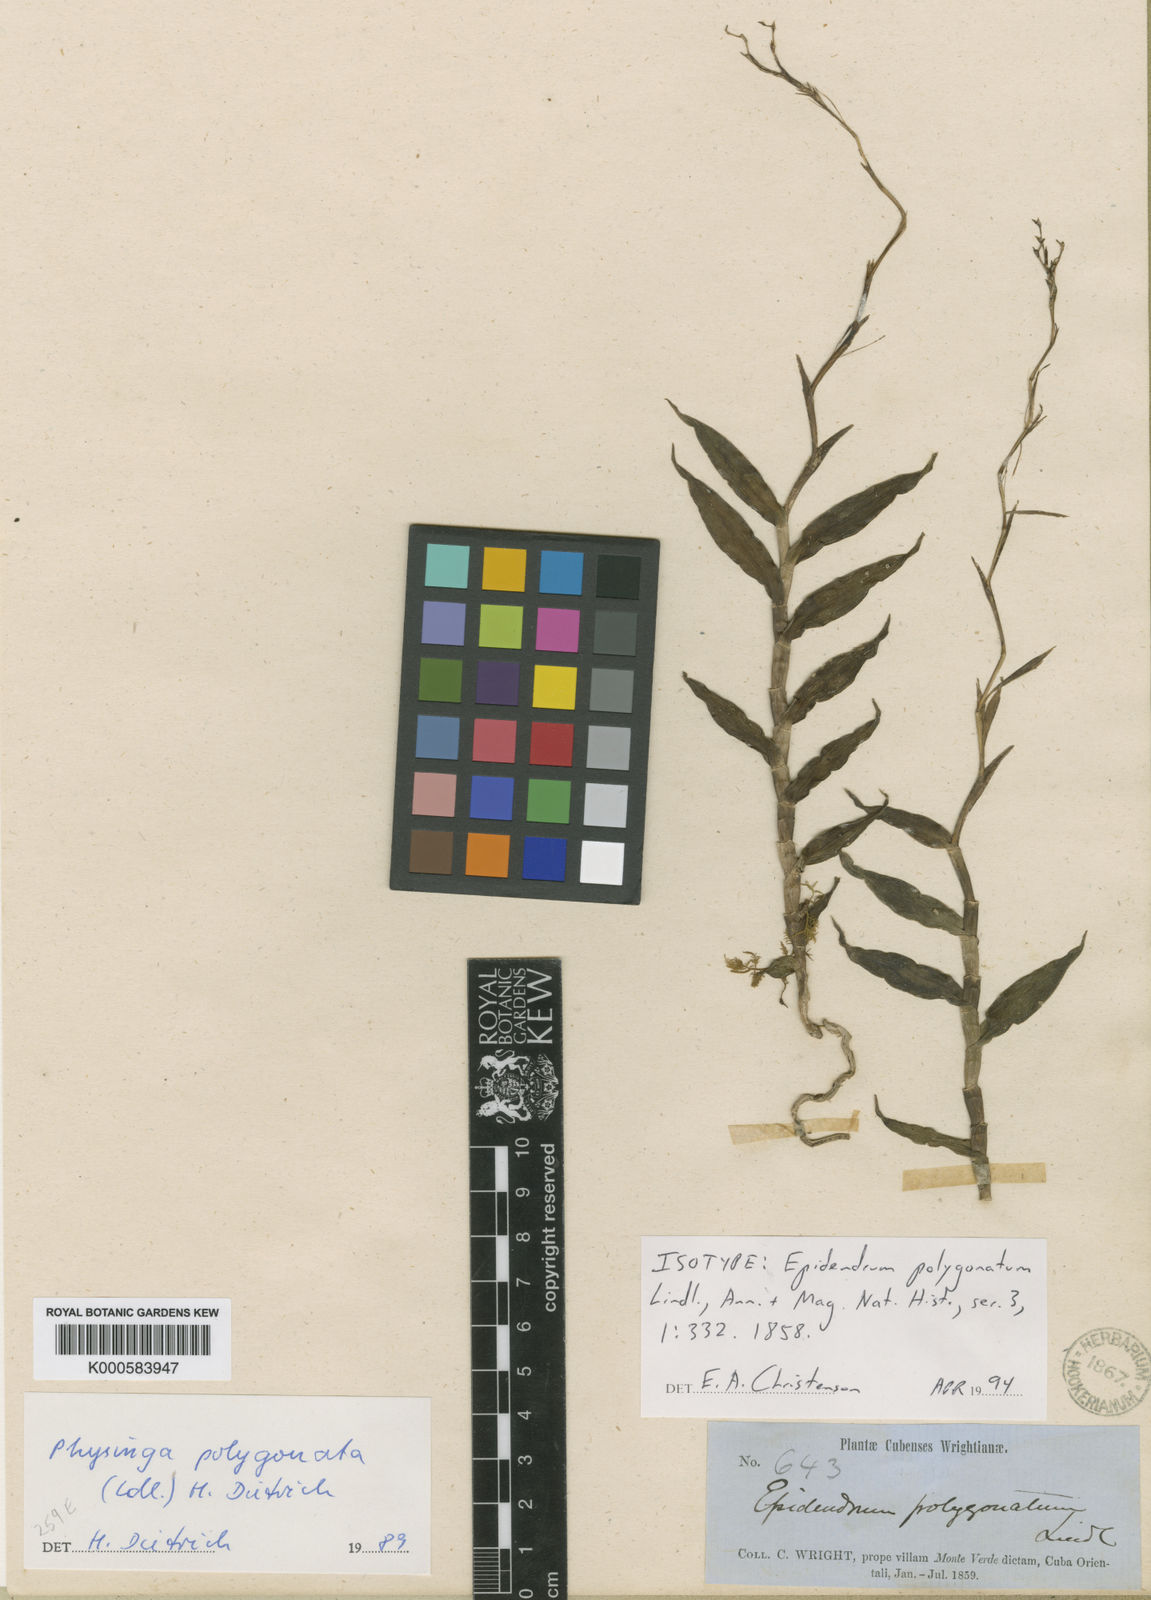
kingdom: Plantae
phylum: Tracheophyta
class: Liliopsida
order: Asparagales
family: Orchidaceae
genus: Epidendrum
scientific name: Epidendrum polygonatum
